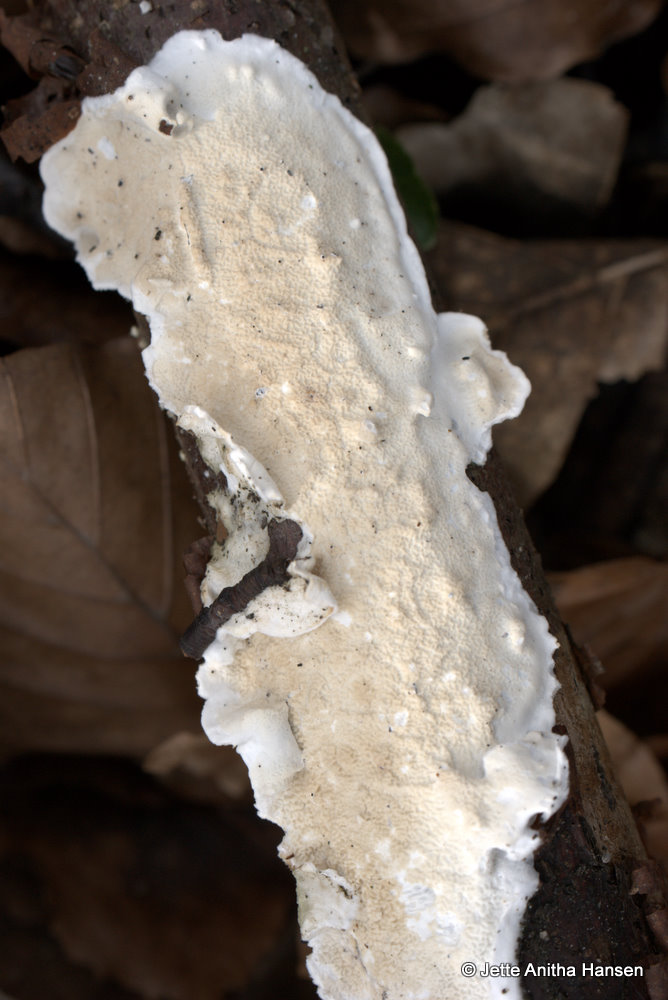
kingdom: Fungi
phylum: Basidiomycota
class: Agaricomycetes
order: Polyporales
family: Irpicaceae
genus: Byssomerulius
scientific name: Byssomerulius corium
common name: læder-åresvamp
